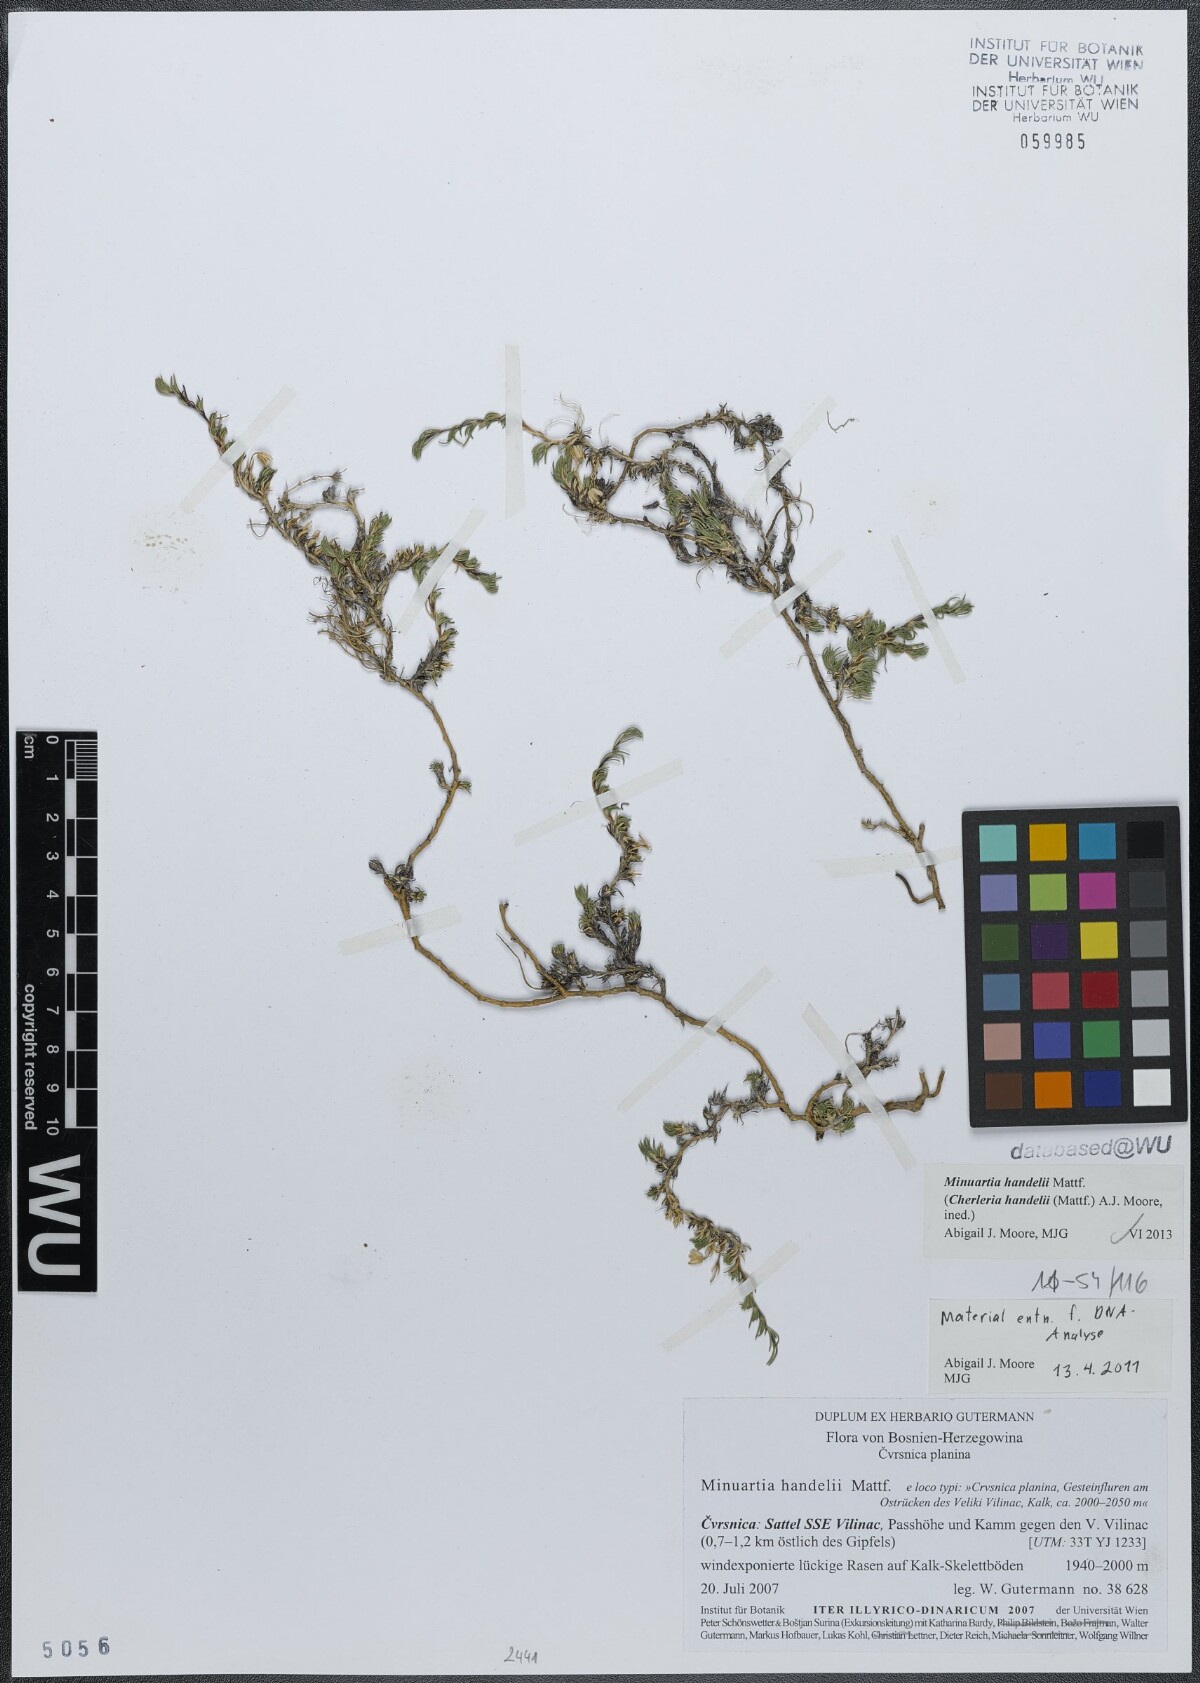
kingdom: Plantae
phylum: Tracheophyta
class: Magnoliopsida
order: Caryophyllales
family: Caryophyllaceae
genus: Cherleria
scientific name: Cherleria handelii
